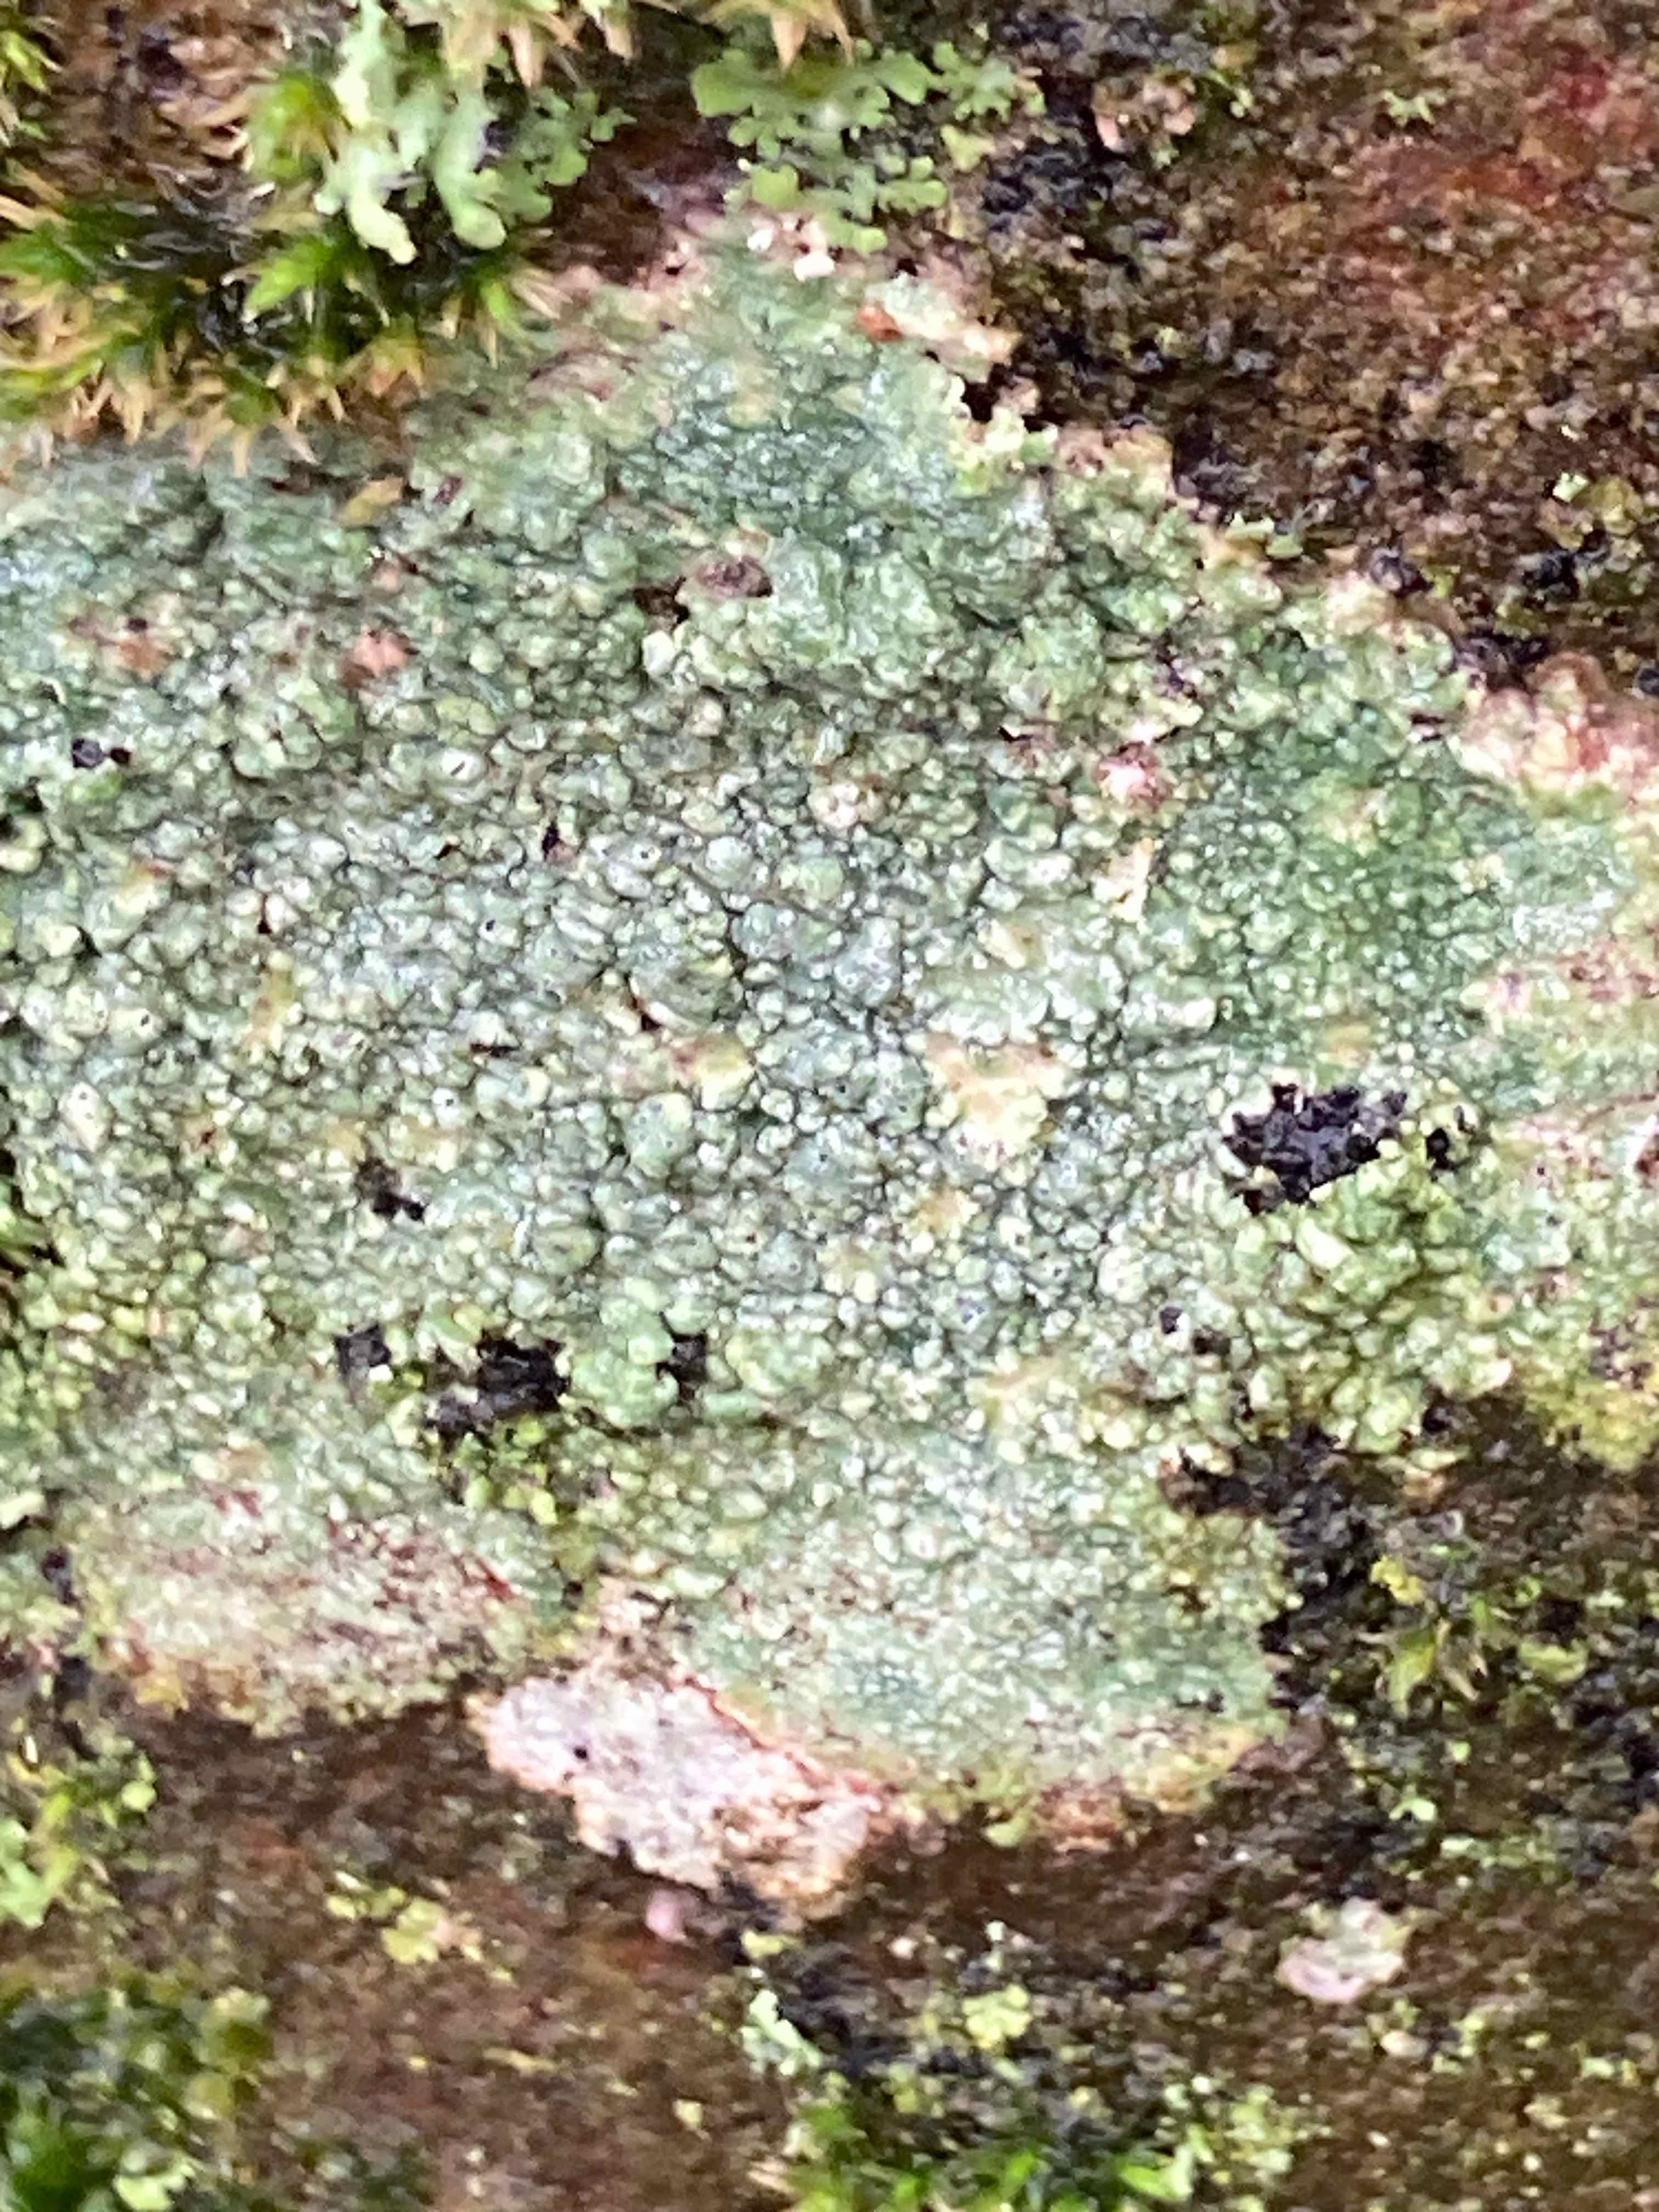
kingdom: Fungi
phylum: Ascomycota
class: Lecanoromycetes
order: Pertusariales
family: Pertusariaceae
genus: Pertusaria
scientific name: Pertusaria pertusa
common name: almindelig prikvortelav
